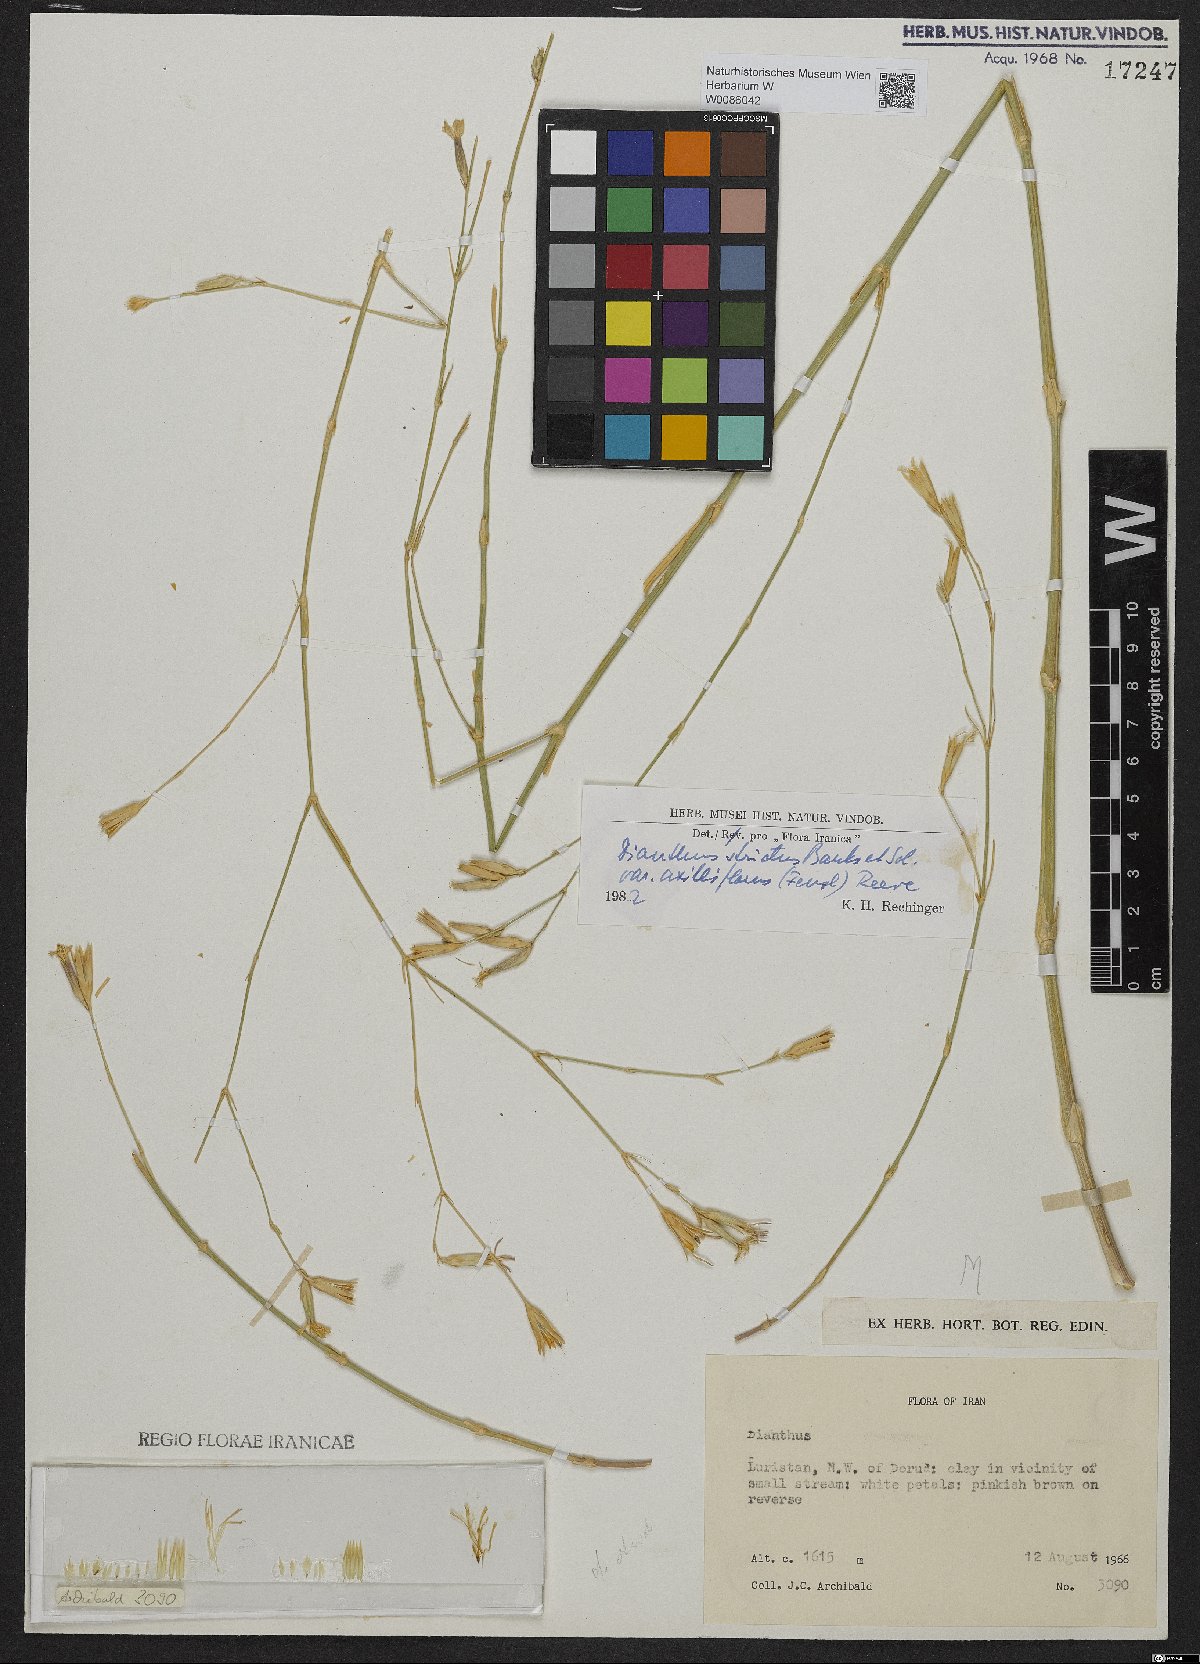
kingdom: Plantae
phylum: Tracheophyta
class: Magnoliopsida
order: Caryophyllales
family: Caryophyllaceae
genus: Dianthus
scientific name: Dianthus strictus
